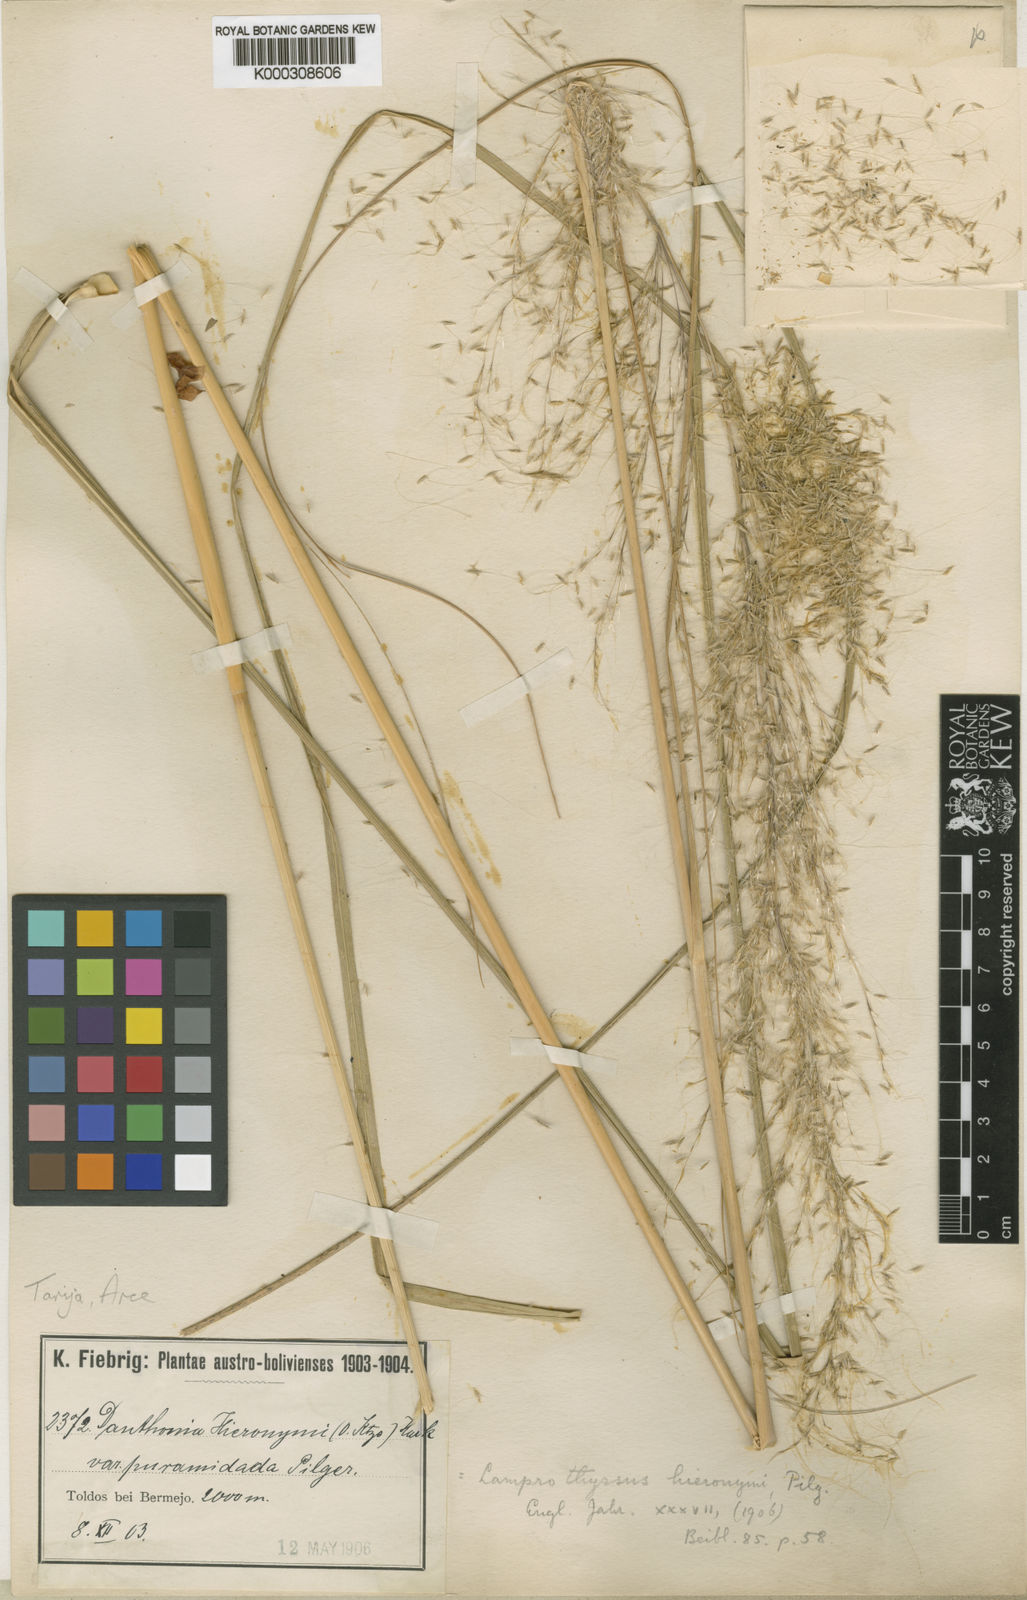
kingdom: Plantae
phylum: Tracheophyta
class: Liliopsida
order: Poales
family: Poaceae
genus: Cortaderia
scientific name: Cortaderia hieronymi
